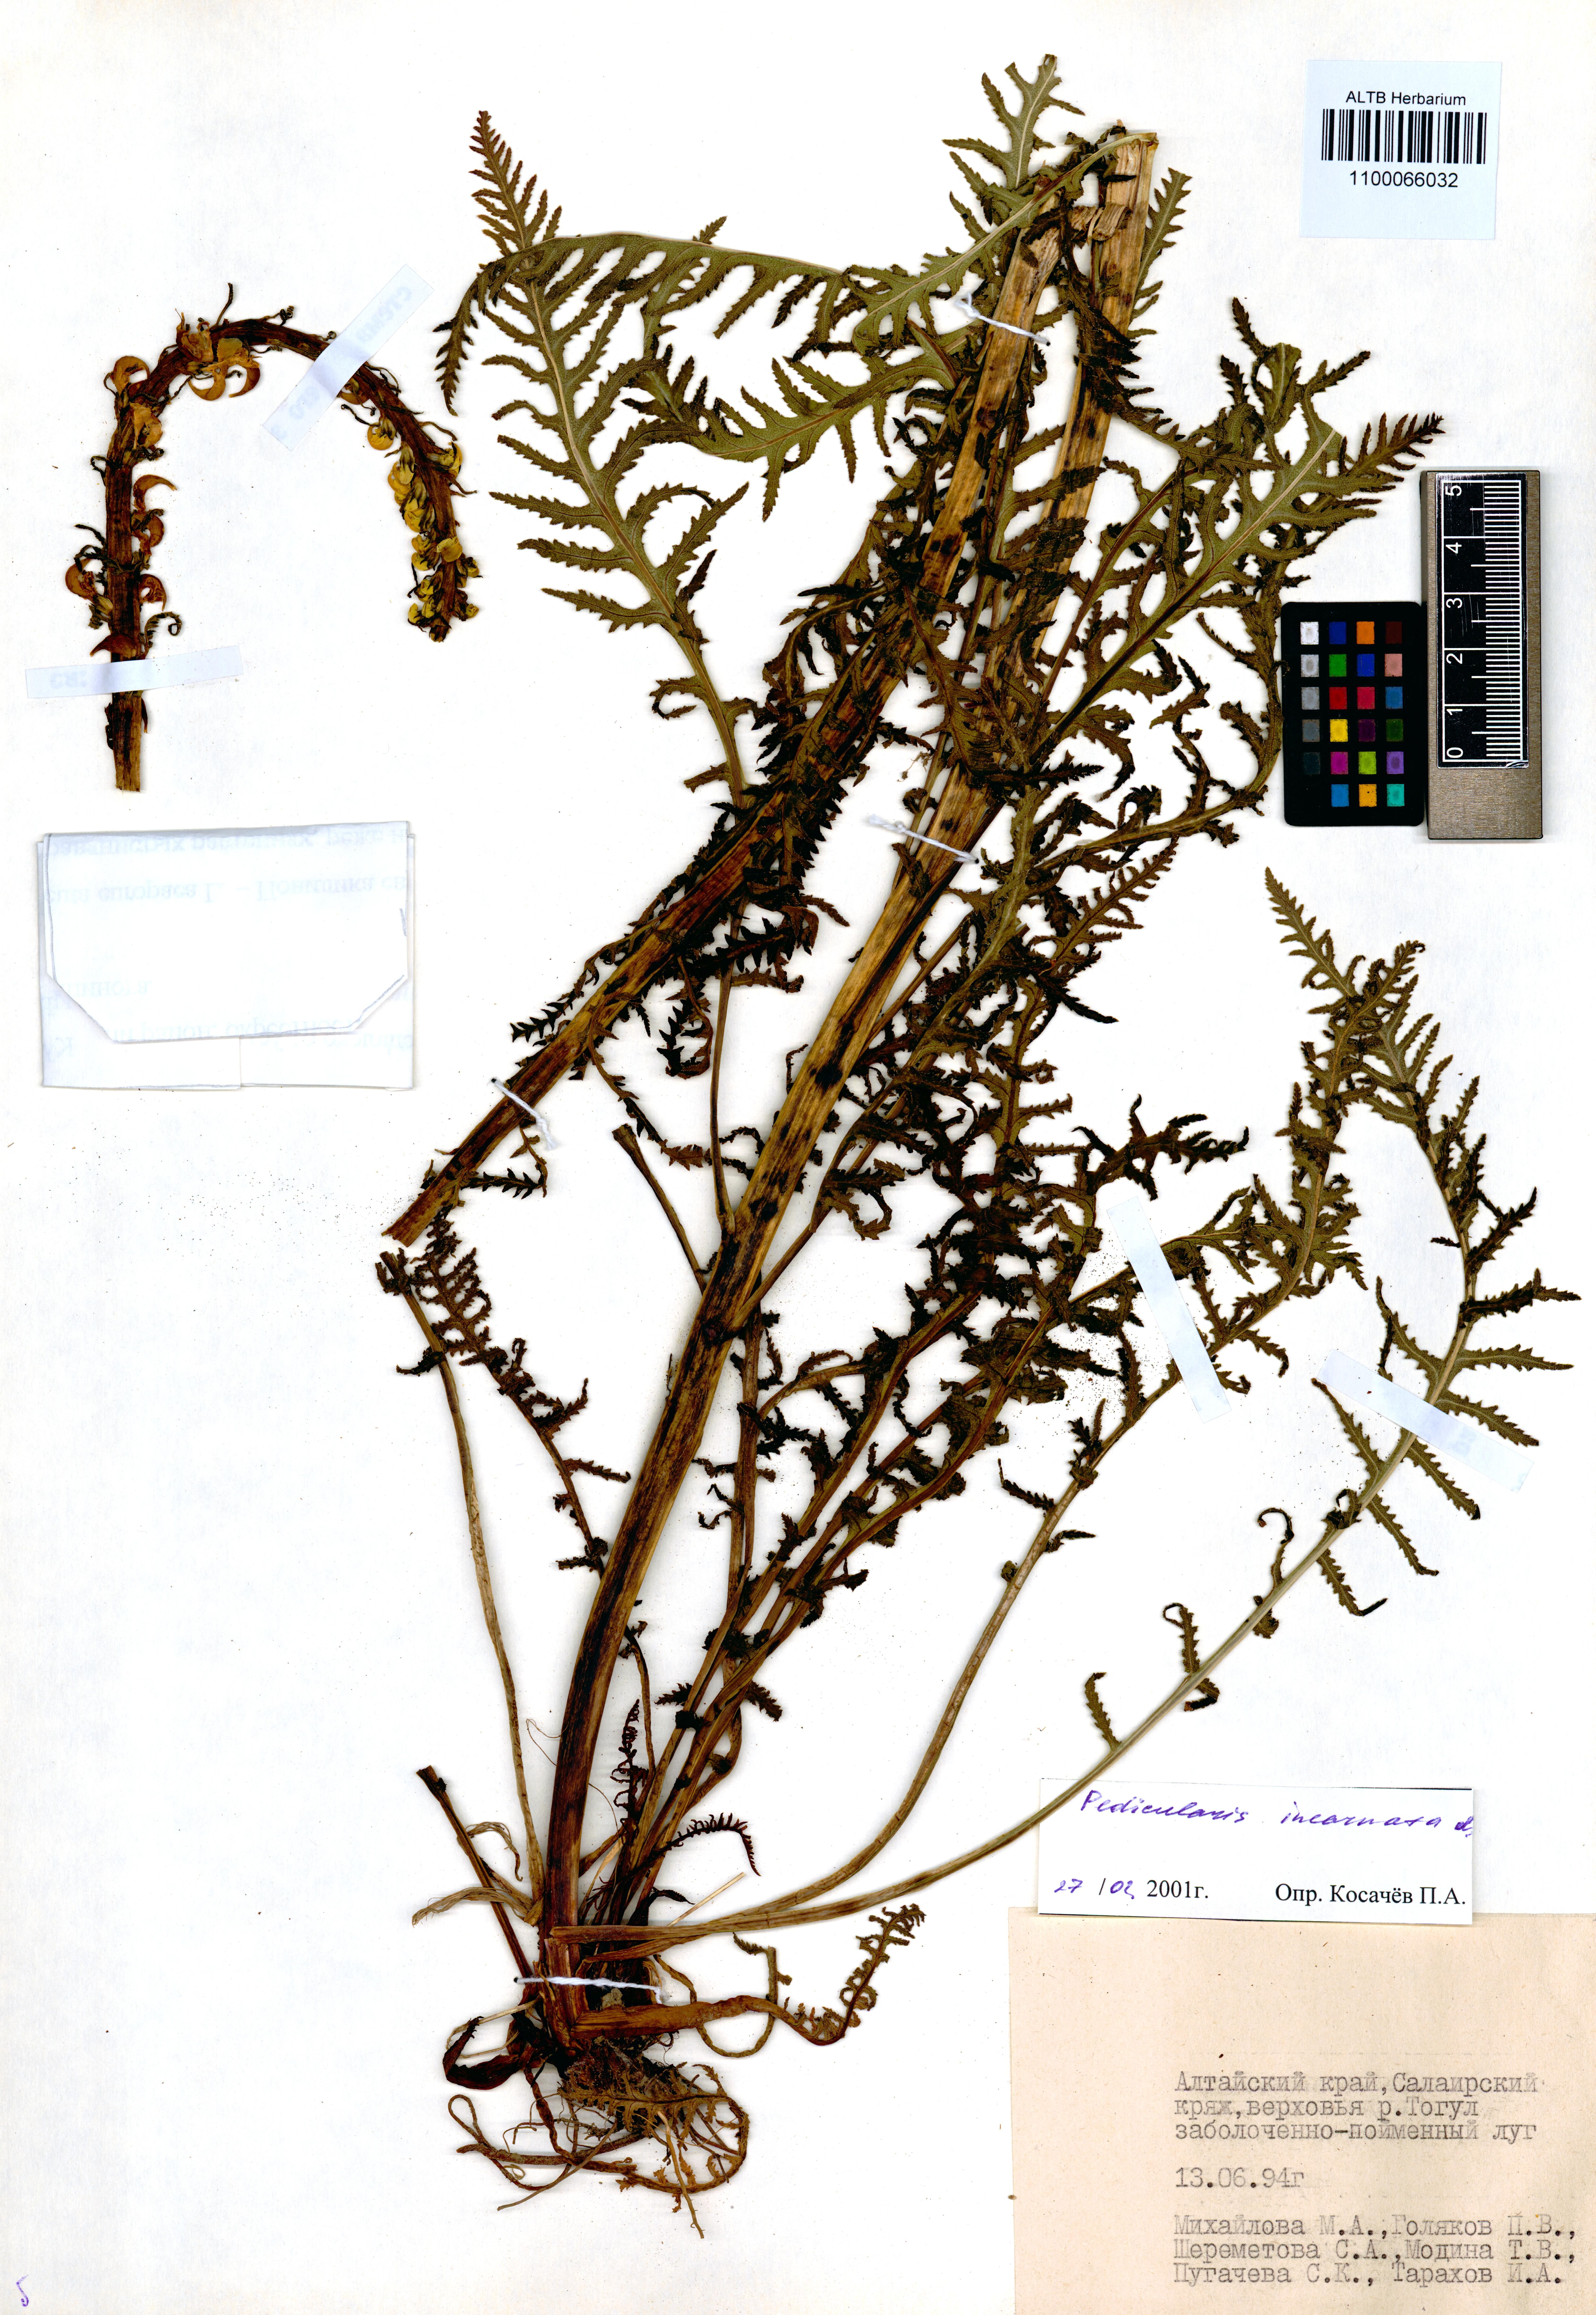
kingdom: Plantae
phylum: Tracheophyta
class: Magnoliopsida
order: Lamiales
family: Orobanchaceae
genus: Pedicularis
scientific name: Pedicularis incarnata
